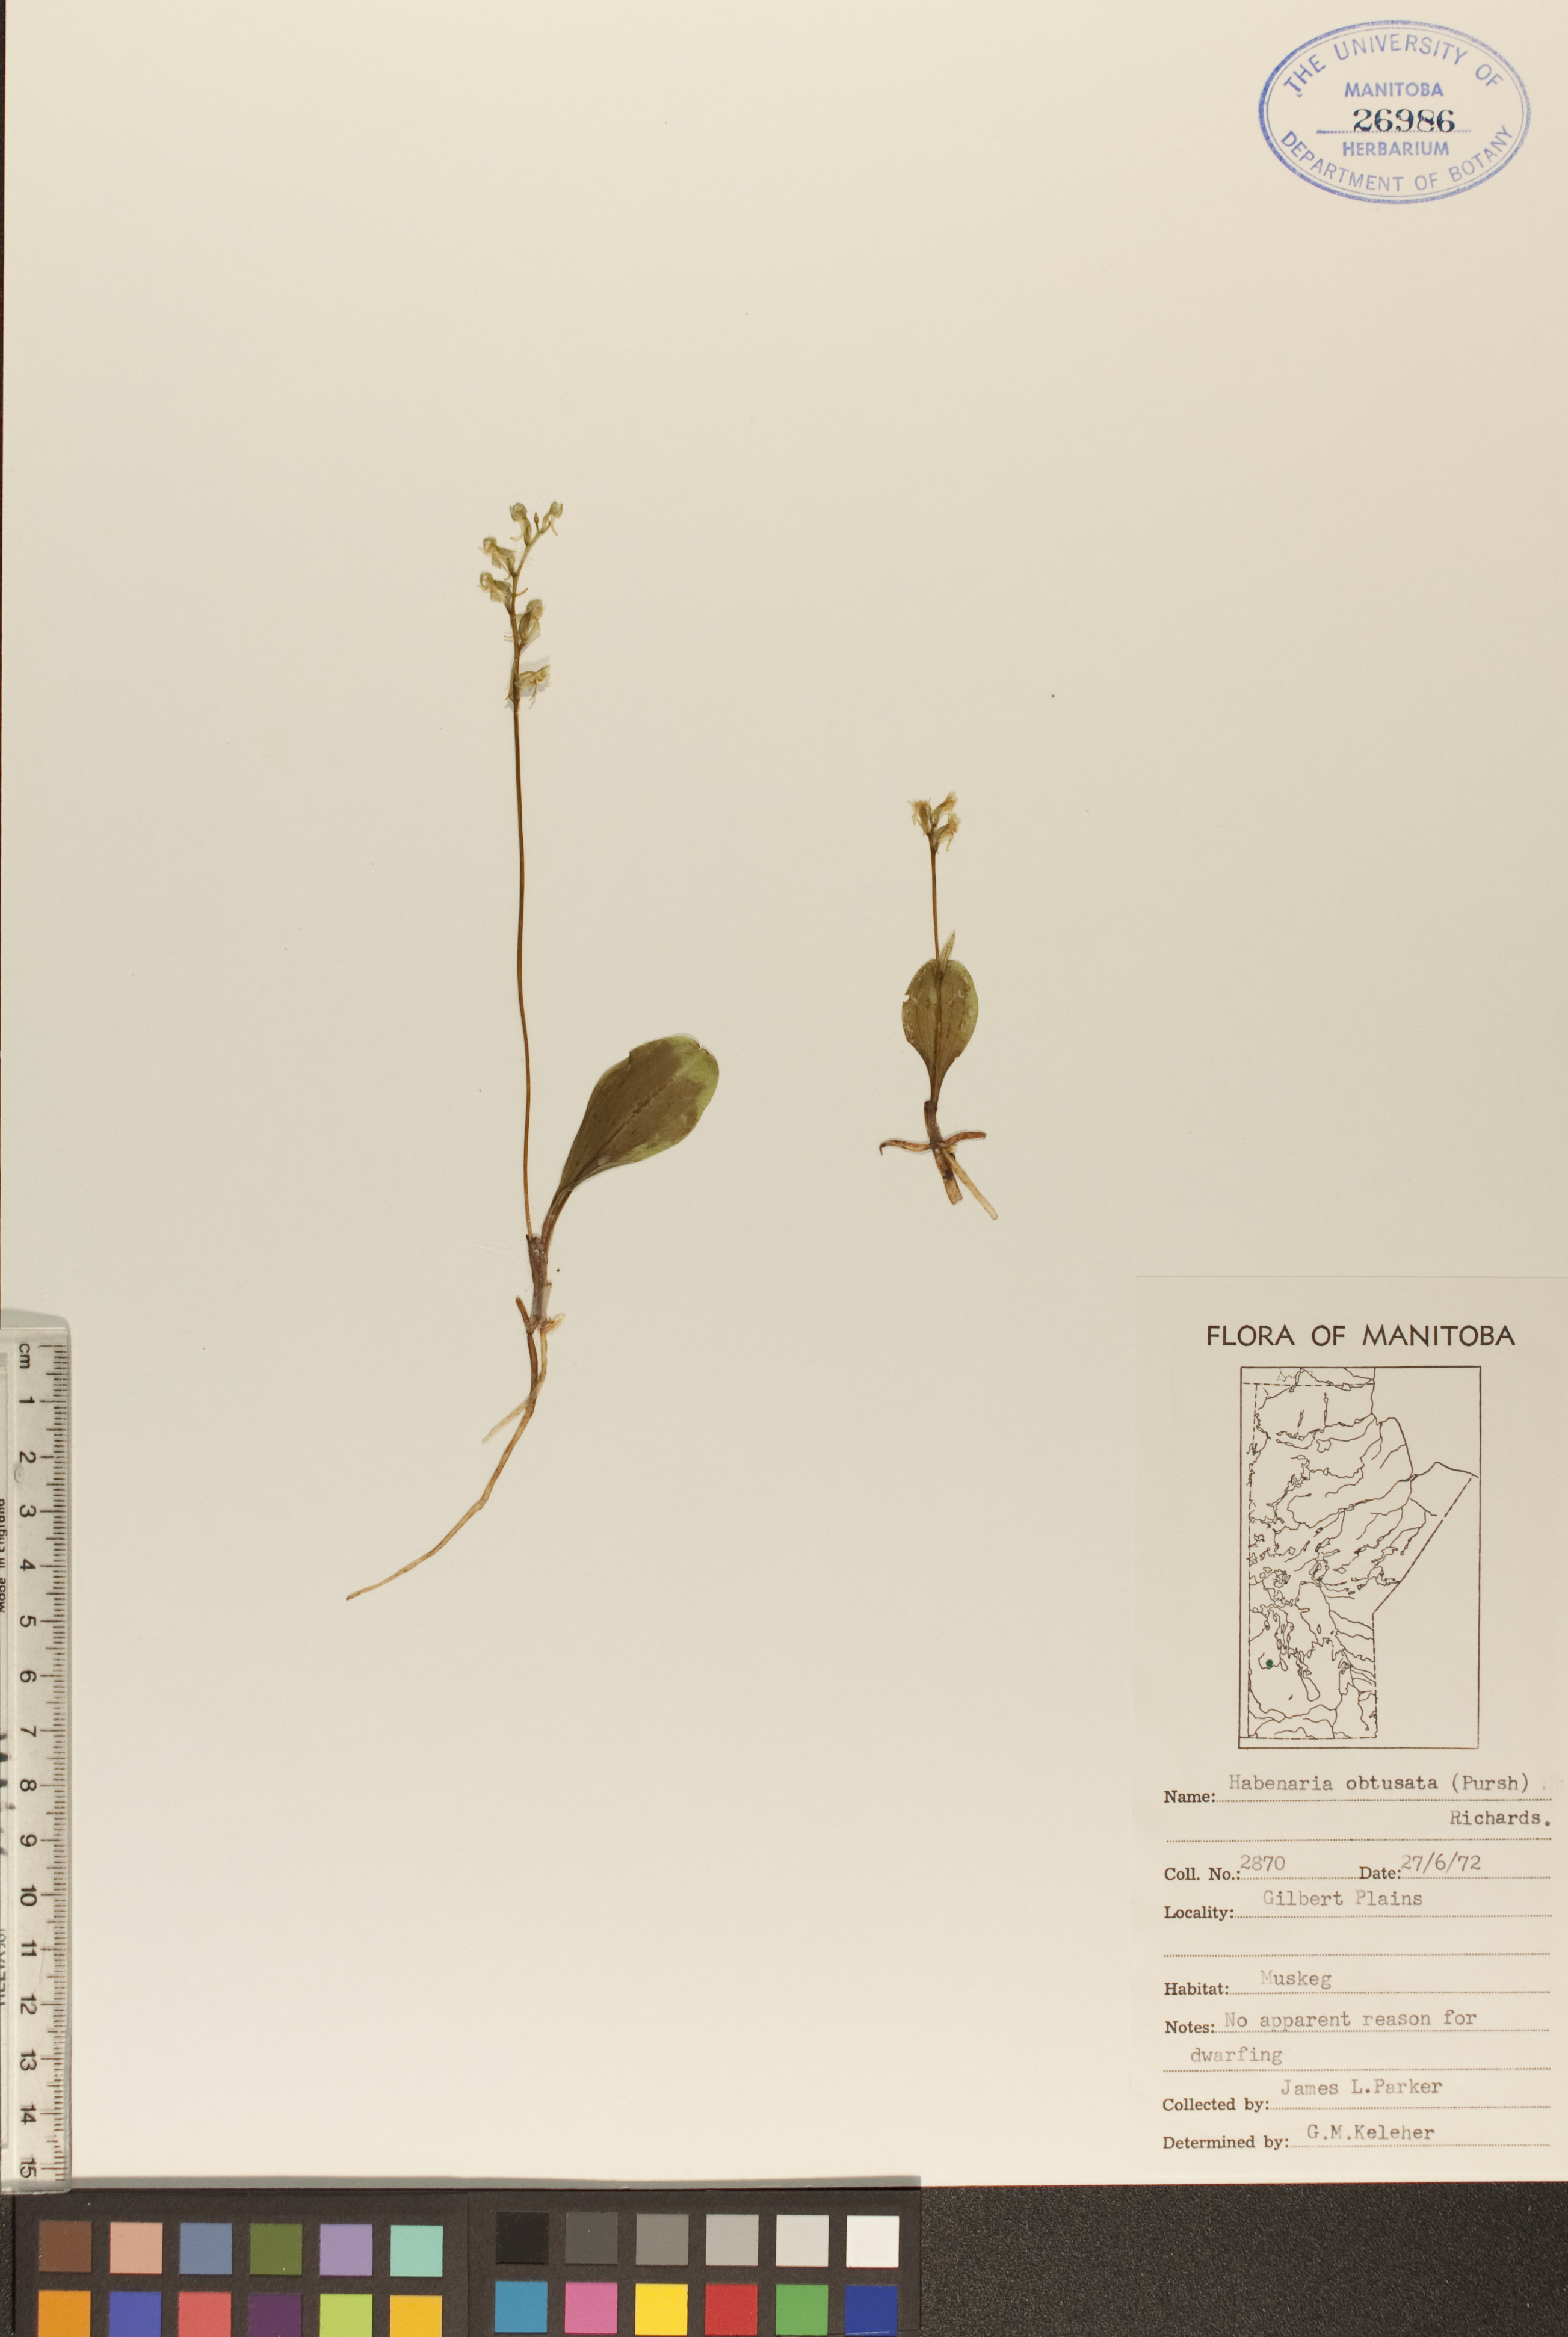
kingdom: Plantae
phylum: Tracheophyta
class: Liliopsida
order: Asparagales
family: Orchidaceae
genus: Platanthera
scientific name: Platanthera obtusata
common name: Blunt bog orchid
